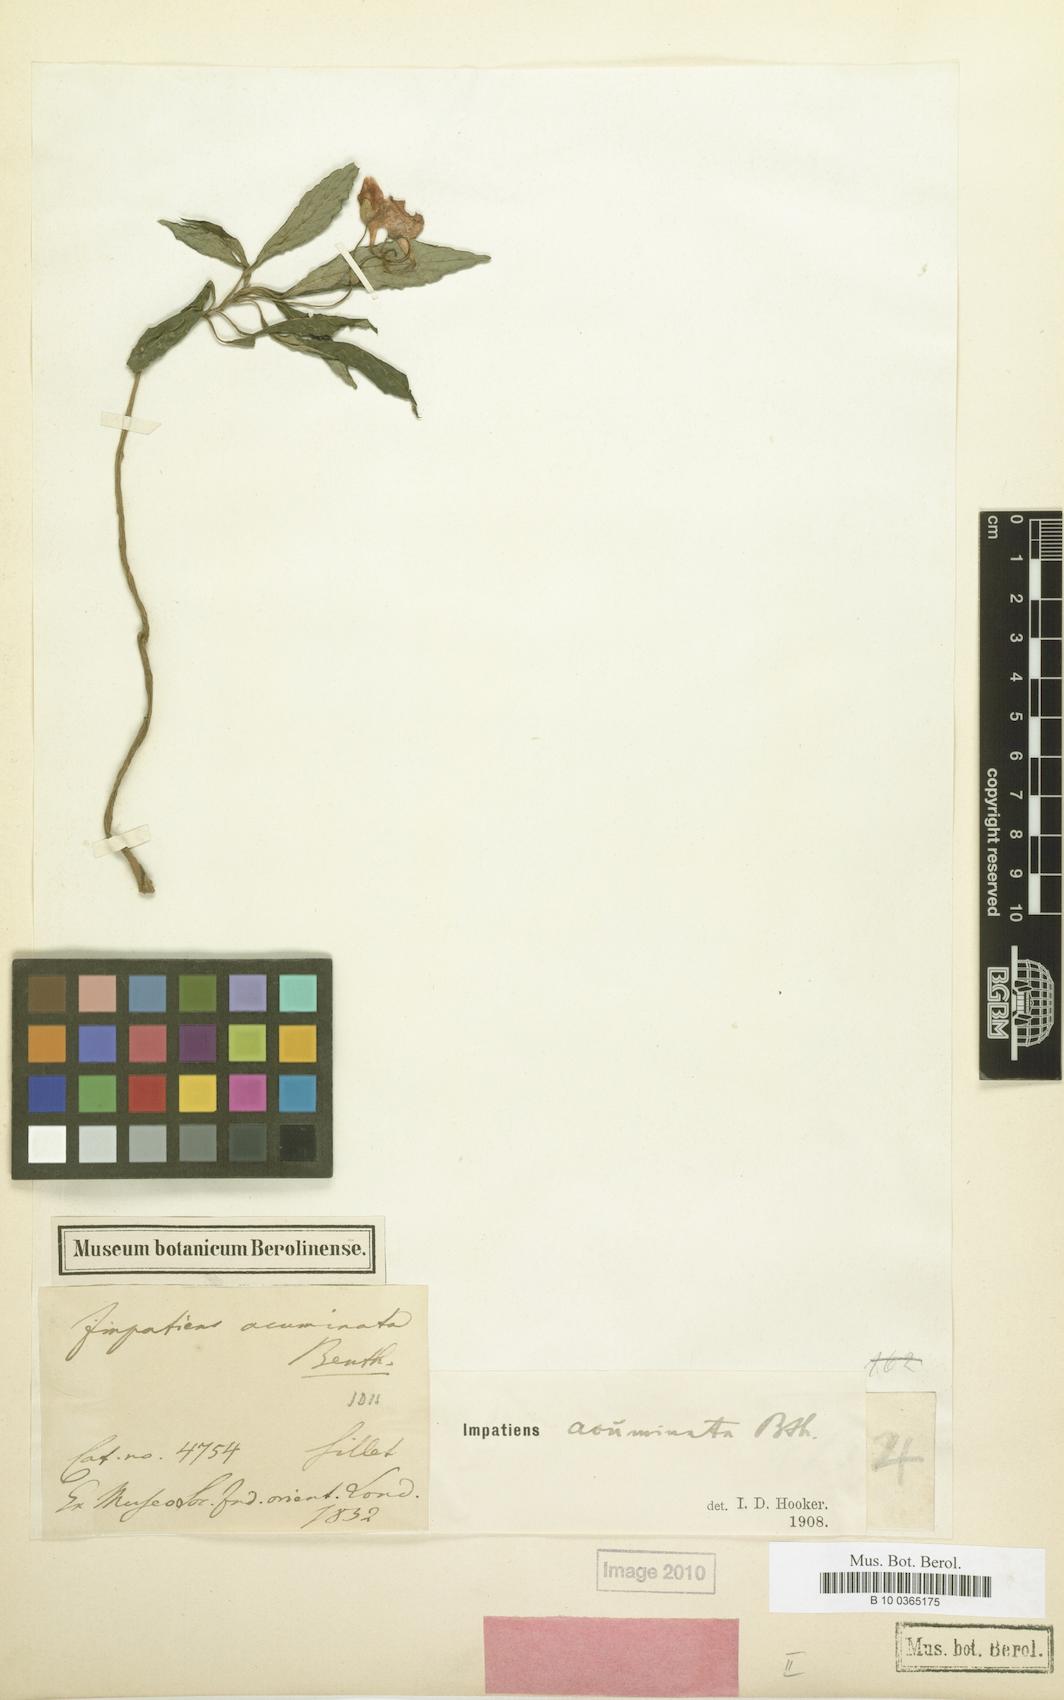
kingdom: Plantae
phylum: Tracheophyta
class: Magnoliopsida
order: Ericales
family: Balsaminaceae
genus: Impatiens
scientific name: Impatiens acuminata
